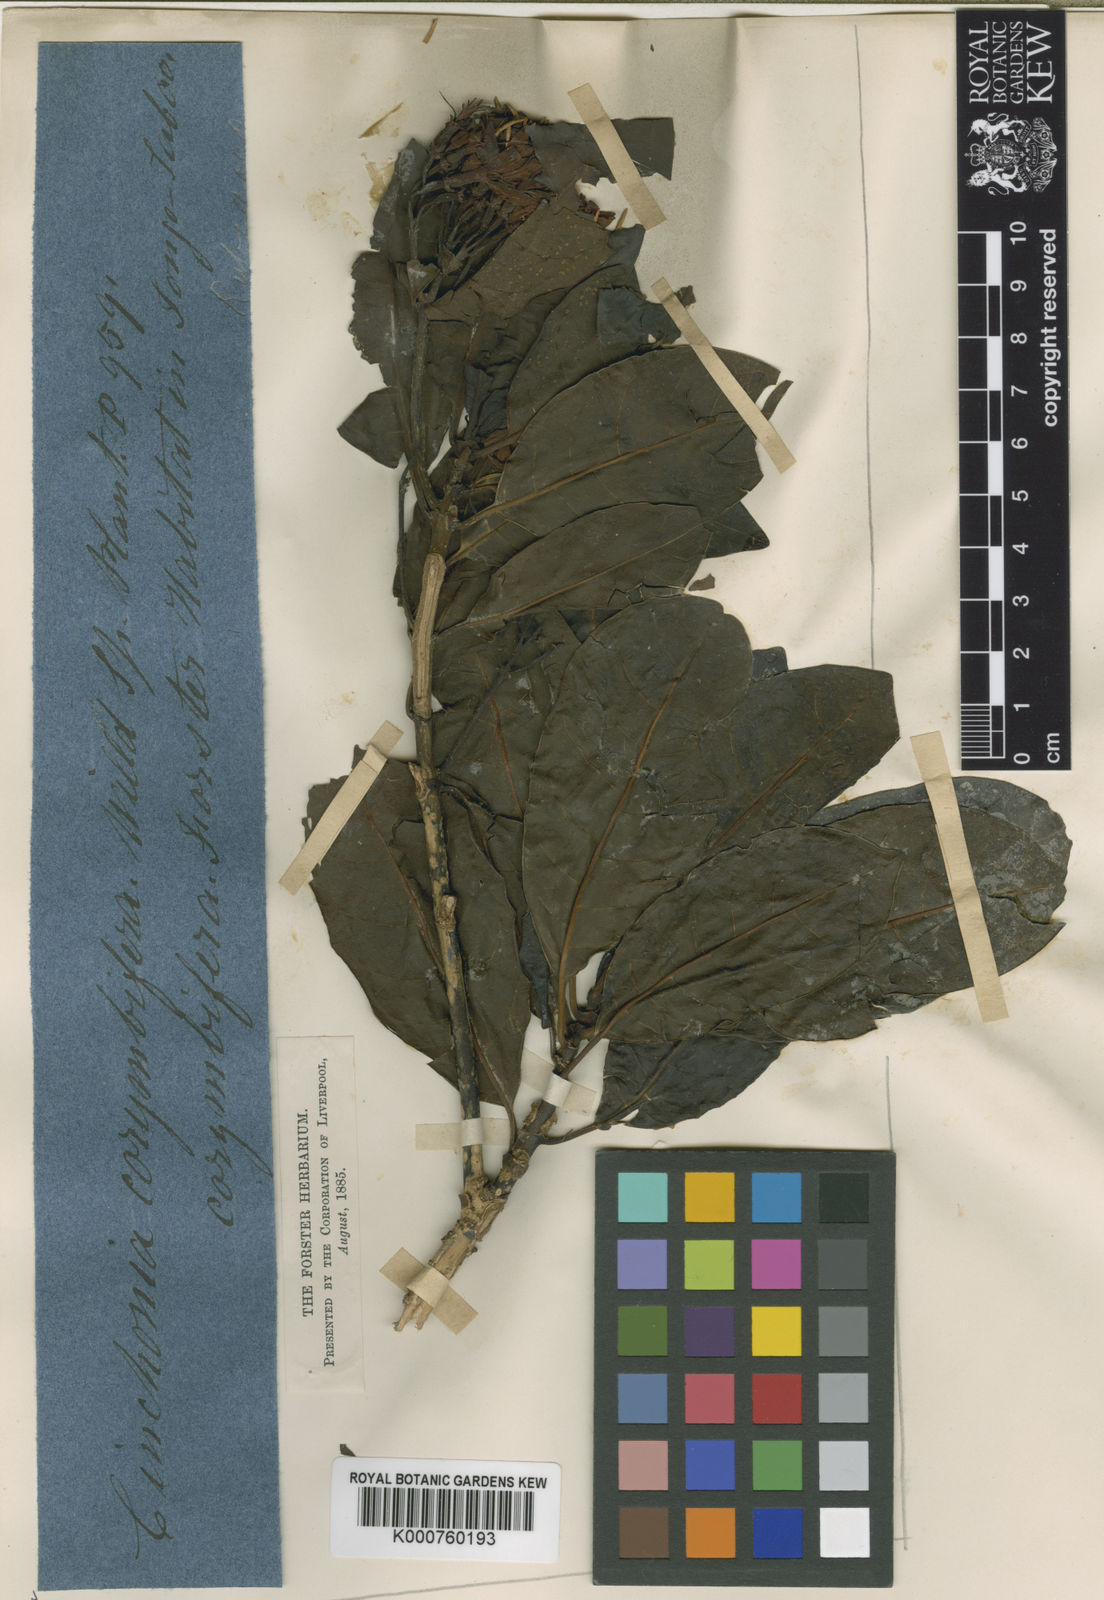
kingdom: Plantae
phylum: Tracheophyta
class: Magnoliopsida
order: Gentianales
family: Rubiaceae
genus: Badusa
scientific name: Badusa corymbifera
